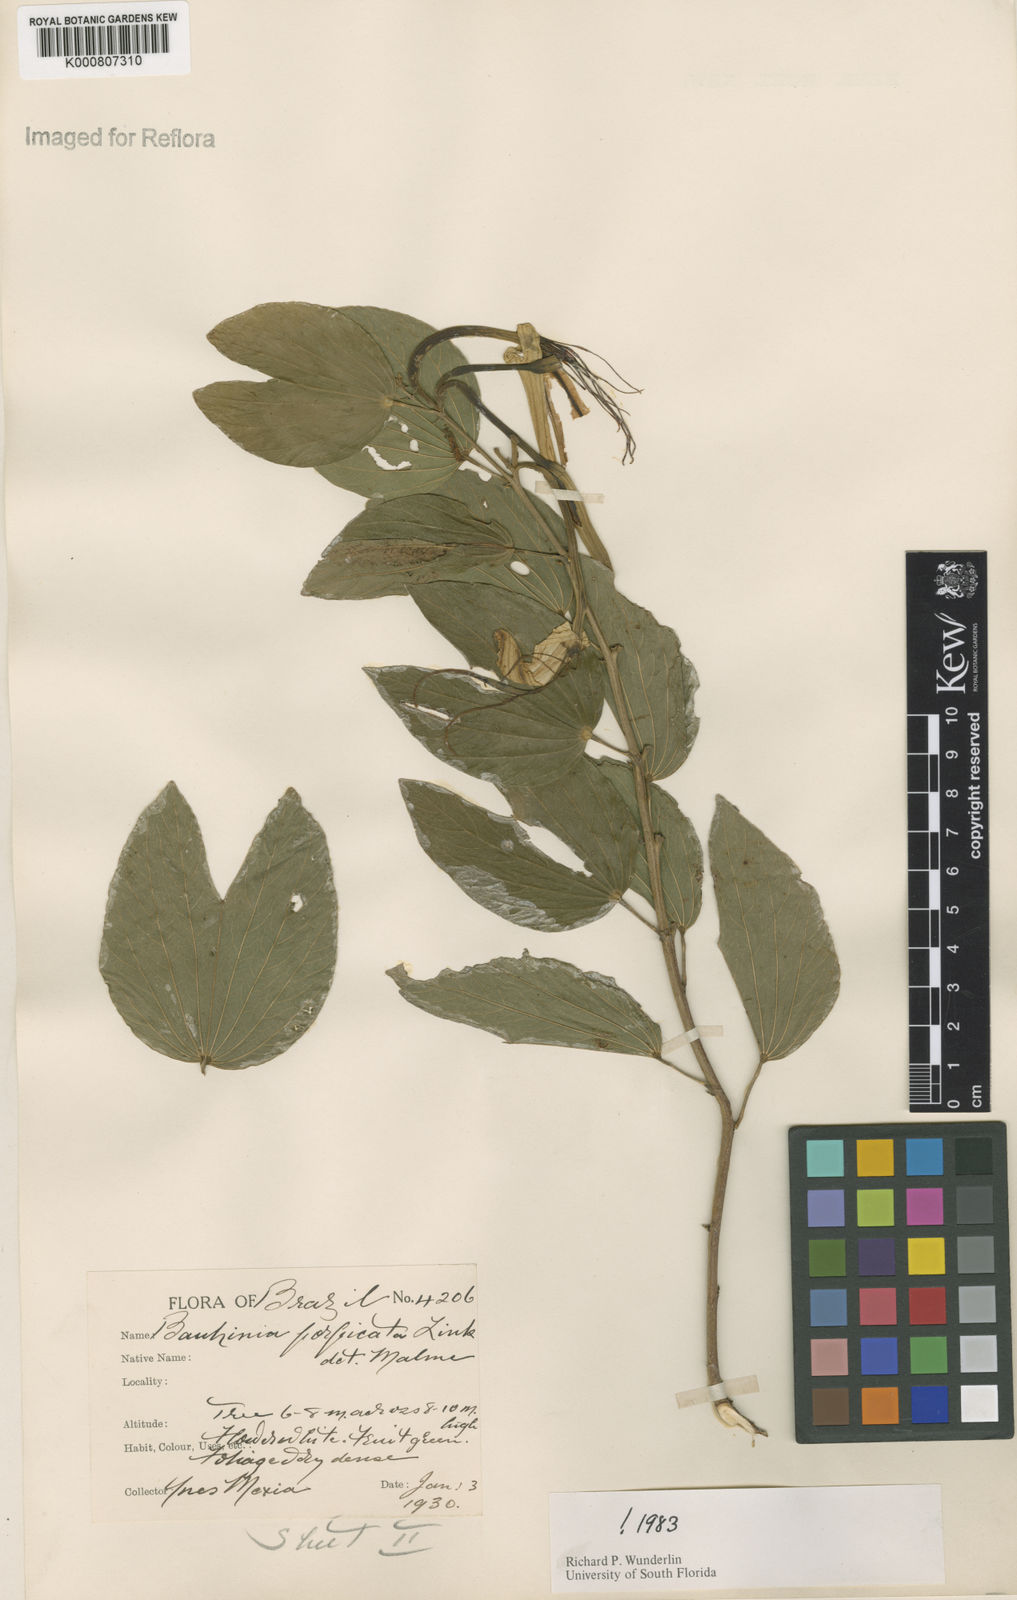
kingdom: Plantae
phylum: Tracheophyta
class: Magnoliopsida
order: Fabales
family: Fabaceae
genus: Bauhinia
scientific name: Bauhinia forficata
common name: Orchid tree
